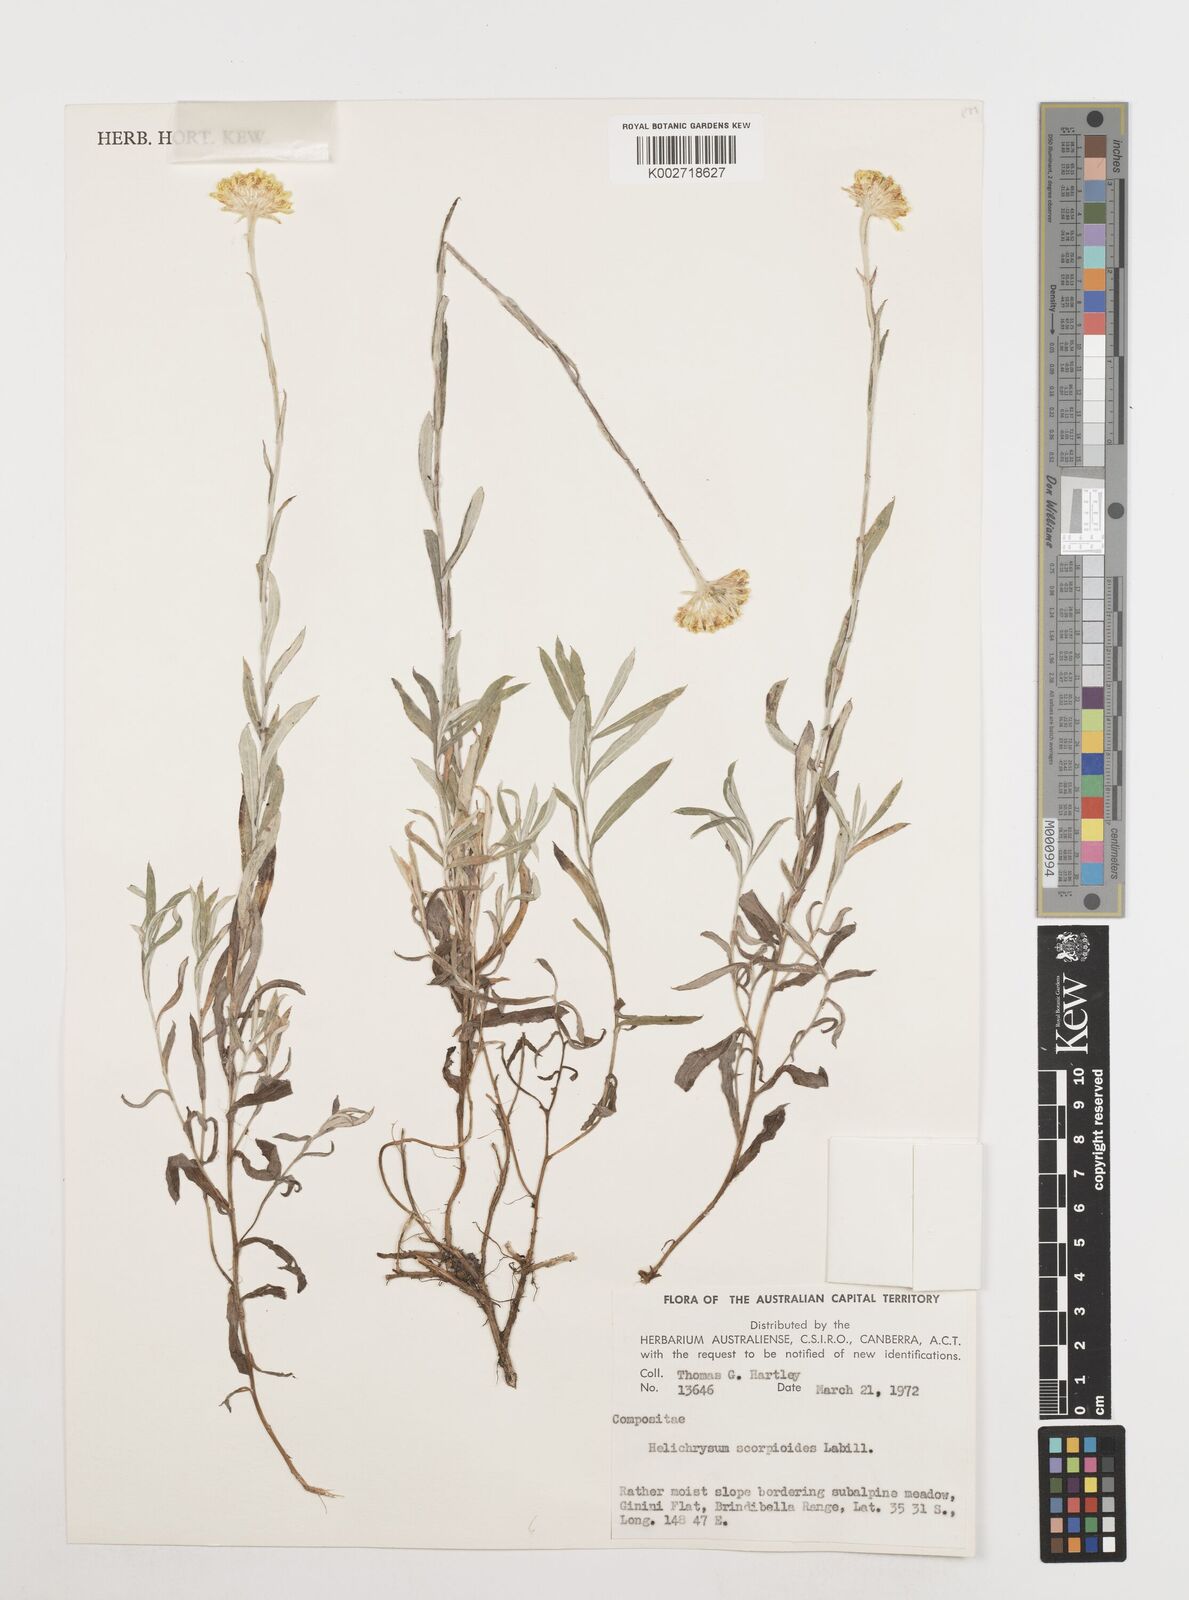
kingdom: Plantae
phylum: Tracheophyta
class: Magnoliopsida
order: Asterales
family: Asteraceae
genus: Coronidium
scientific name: Coronidium scorpioides
